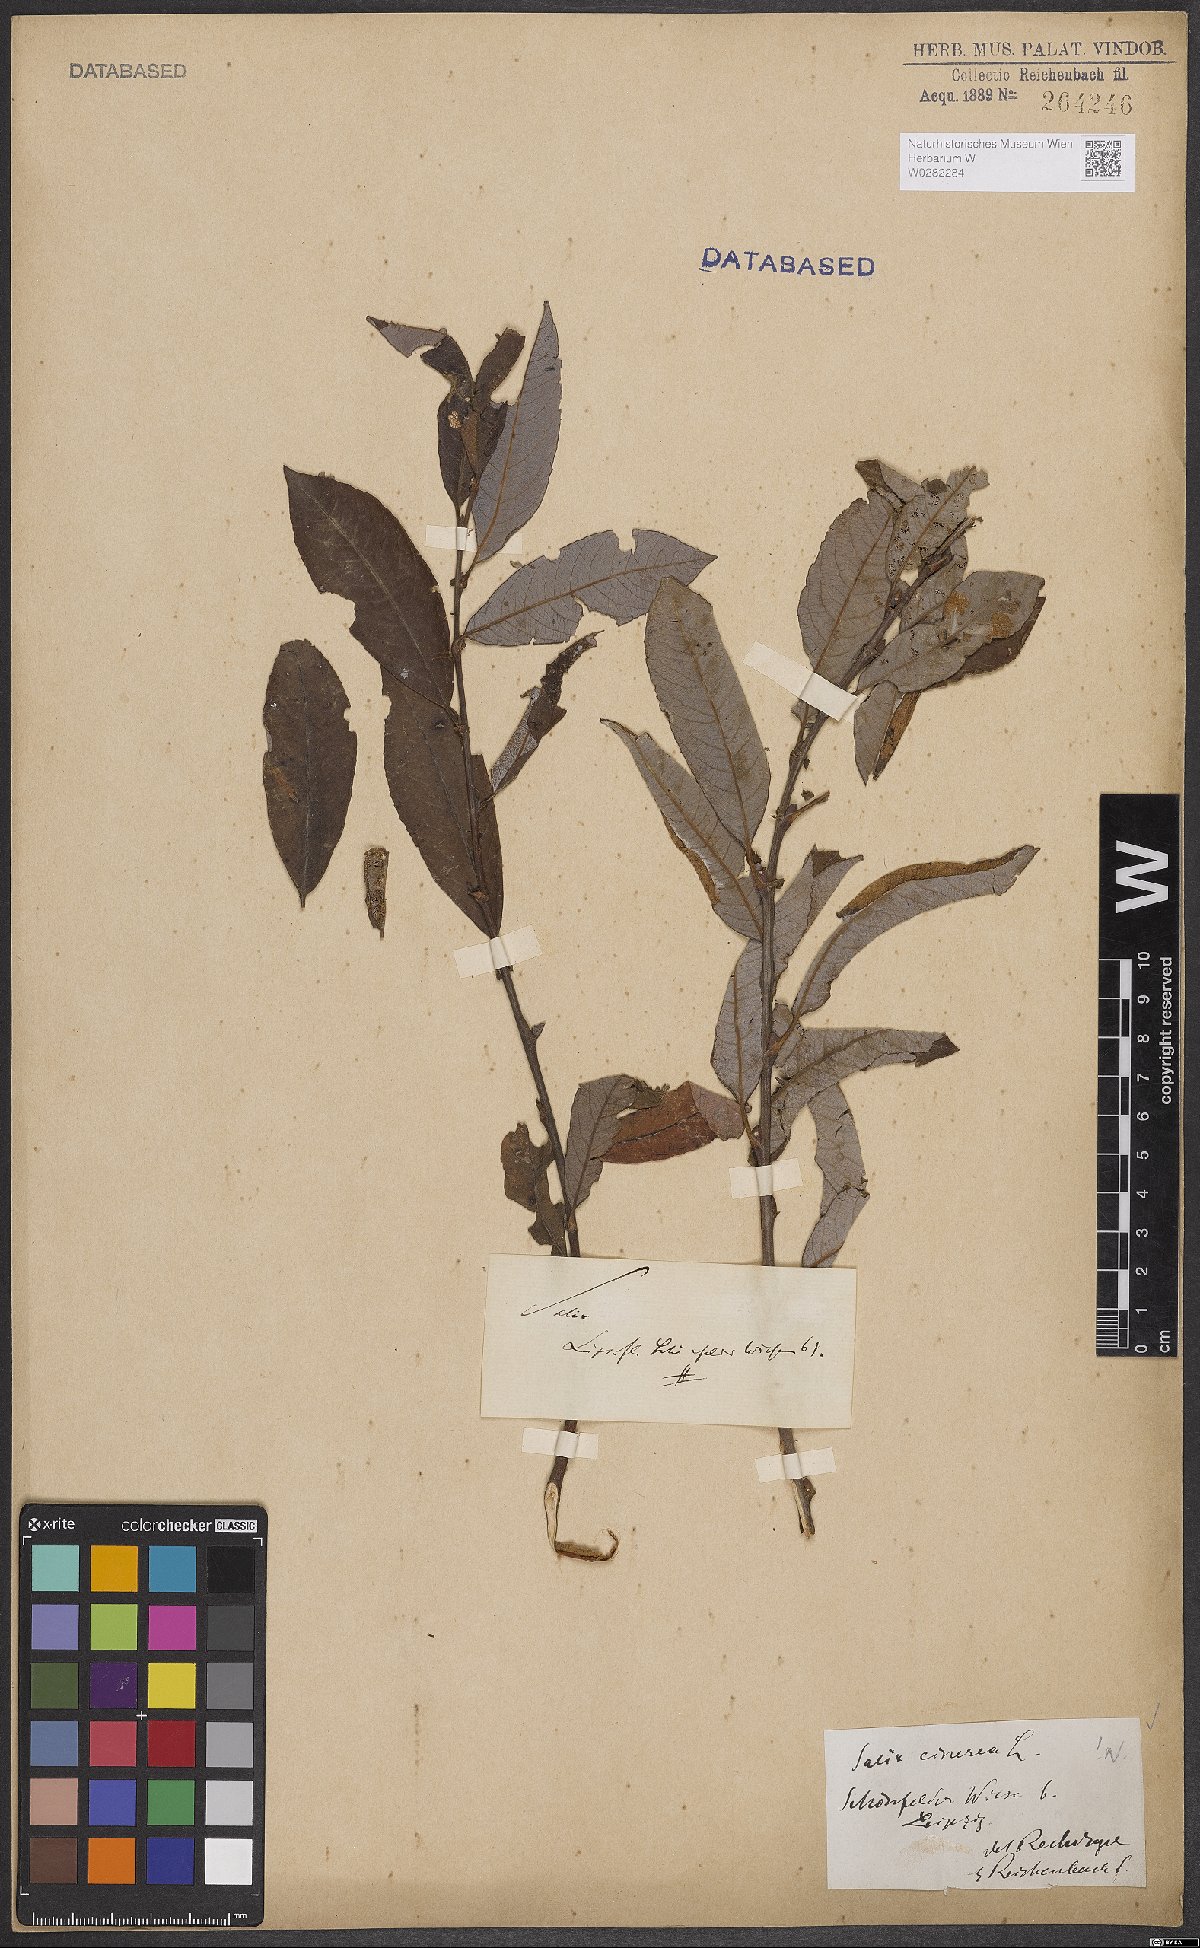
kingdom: Plantae
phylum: Tracheophyta
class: Magnoliopsida
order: Malpighiales
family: Salicaceae
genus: Salix
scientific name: Salix cinerea
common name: Common sallow
